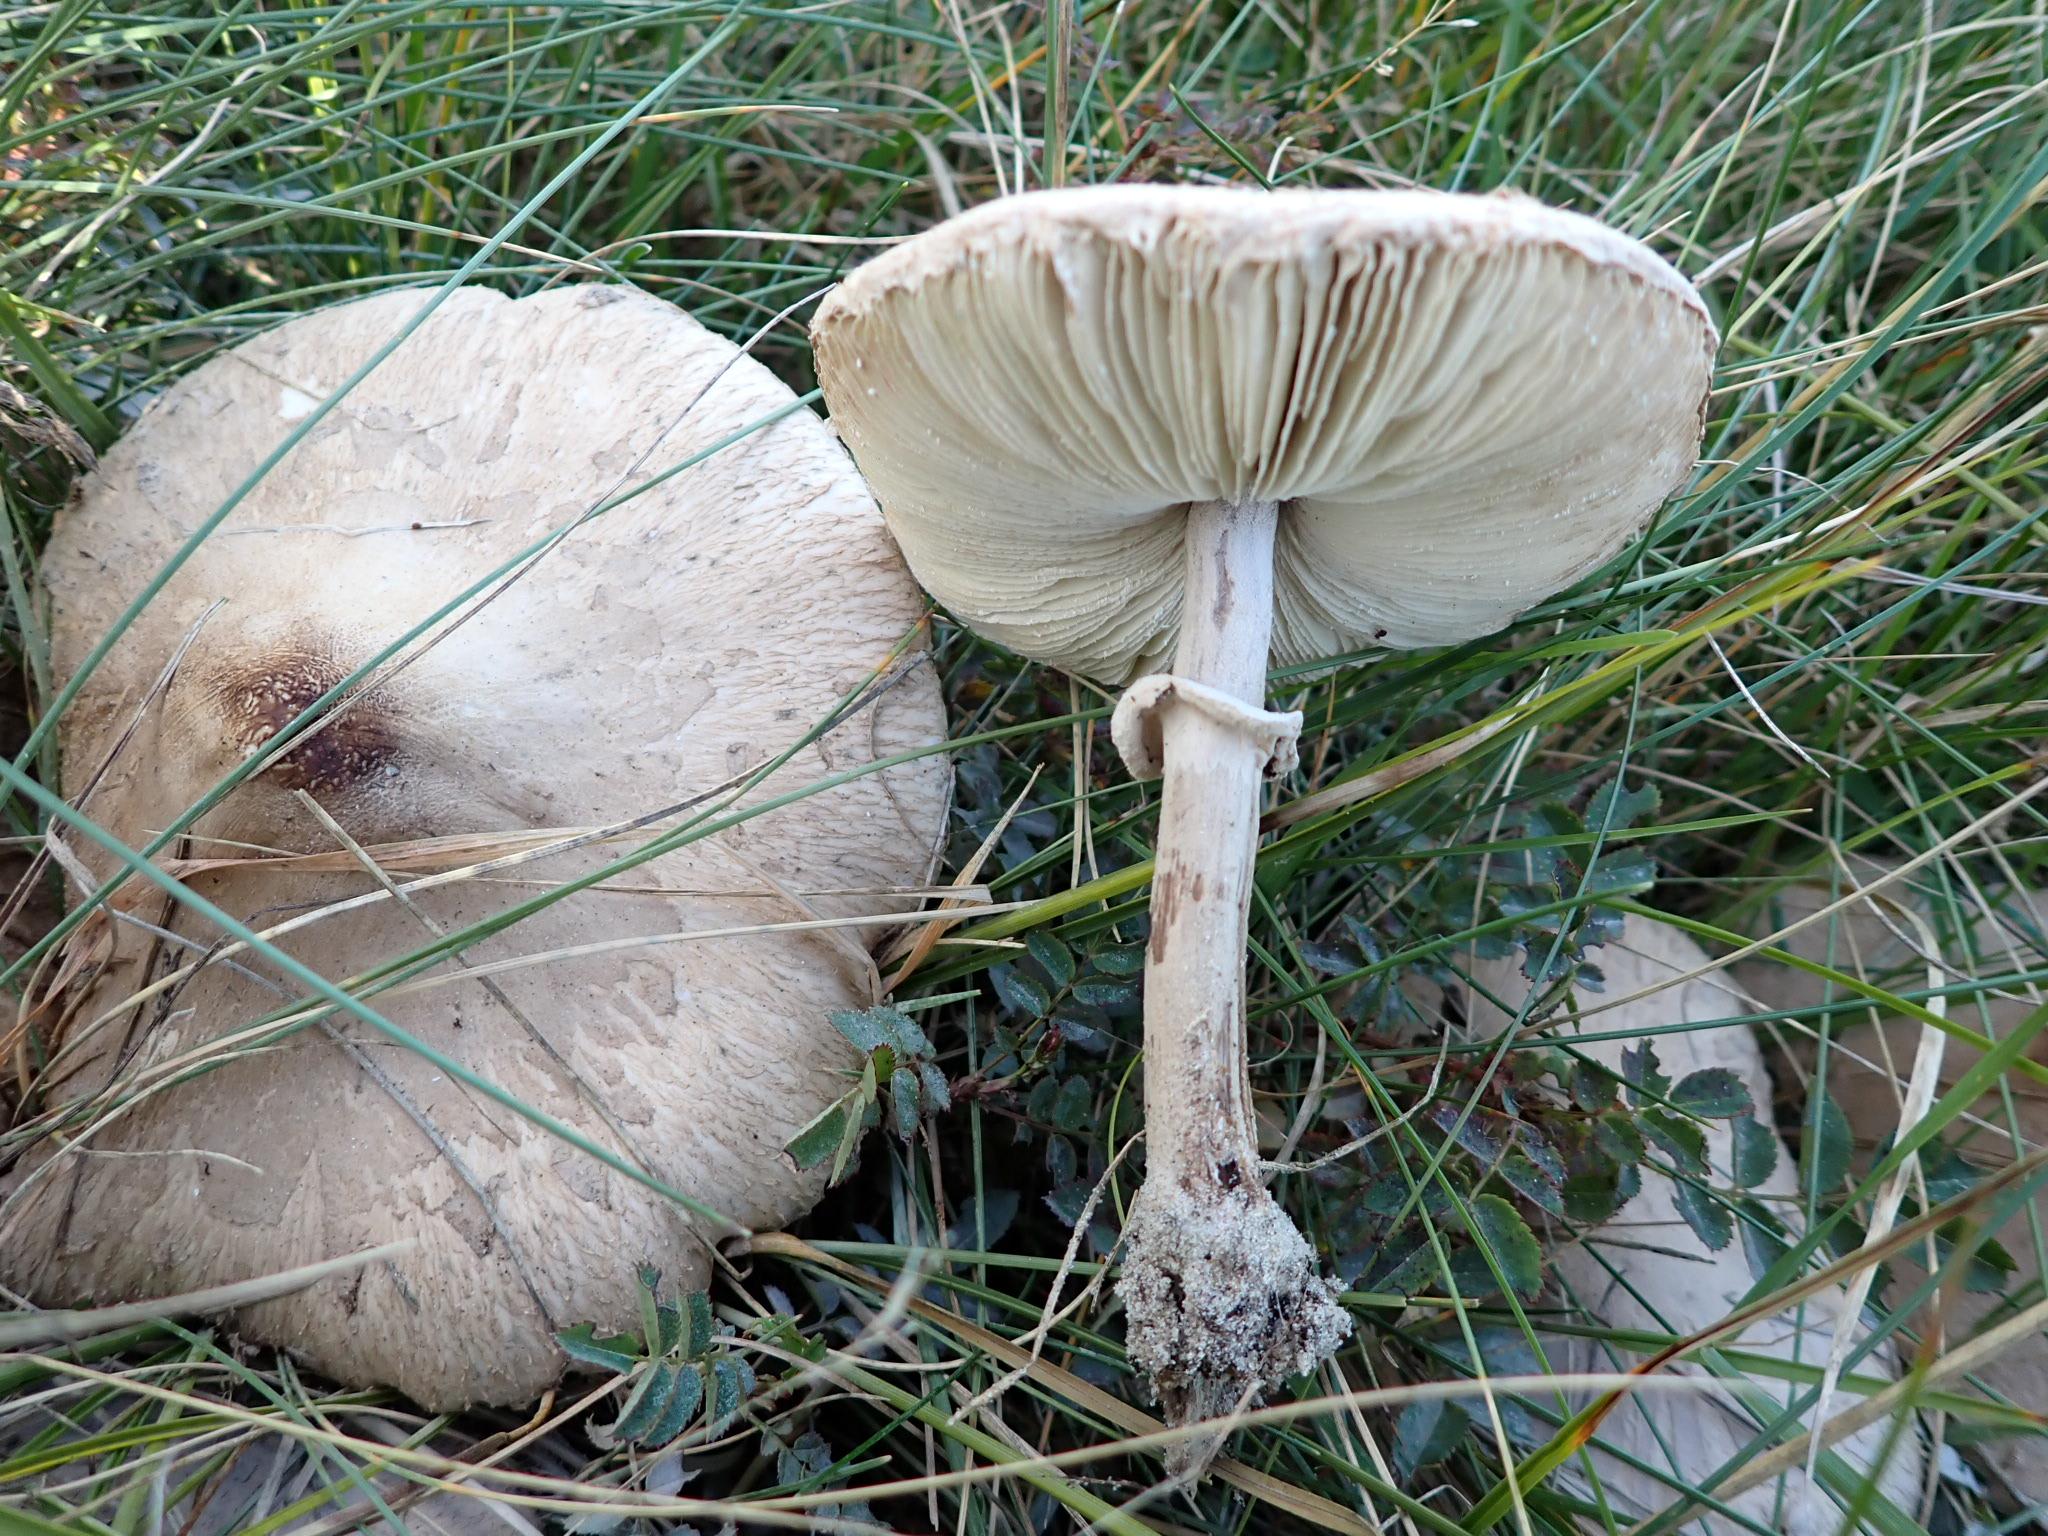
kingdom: Fungi
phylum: Basidiomycota
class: Agaricomycetes
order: Agaricales
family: Agaricaceae
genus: Macrolepiota
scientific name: Macrolepiota mastoidea
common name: puklet kæmpeparasolhat
